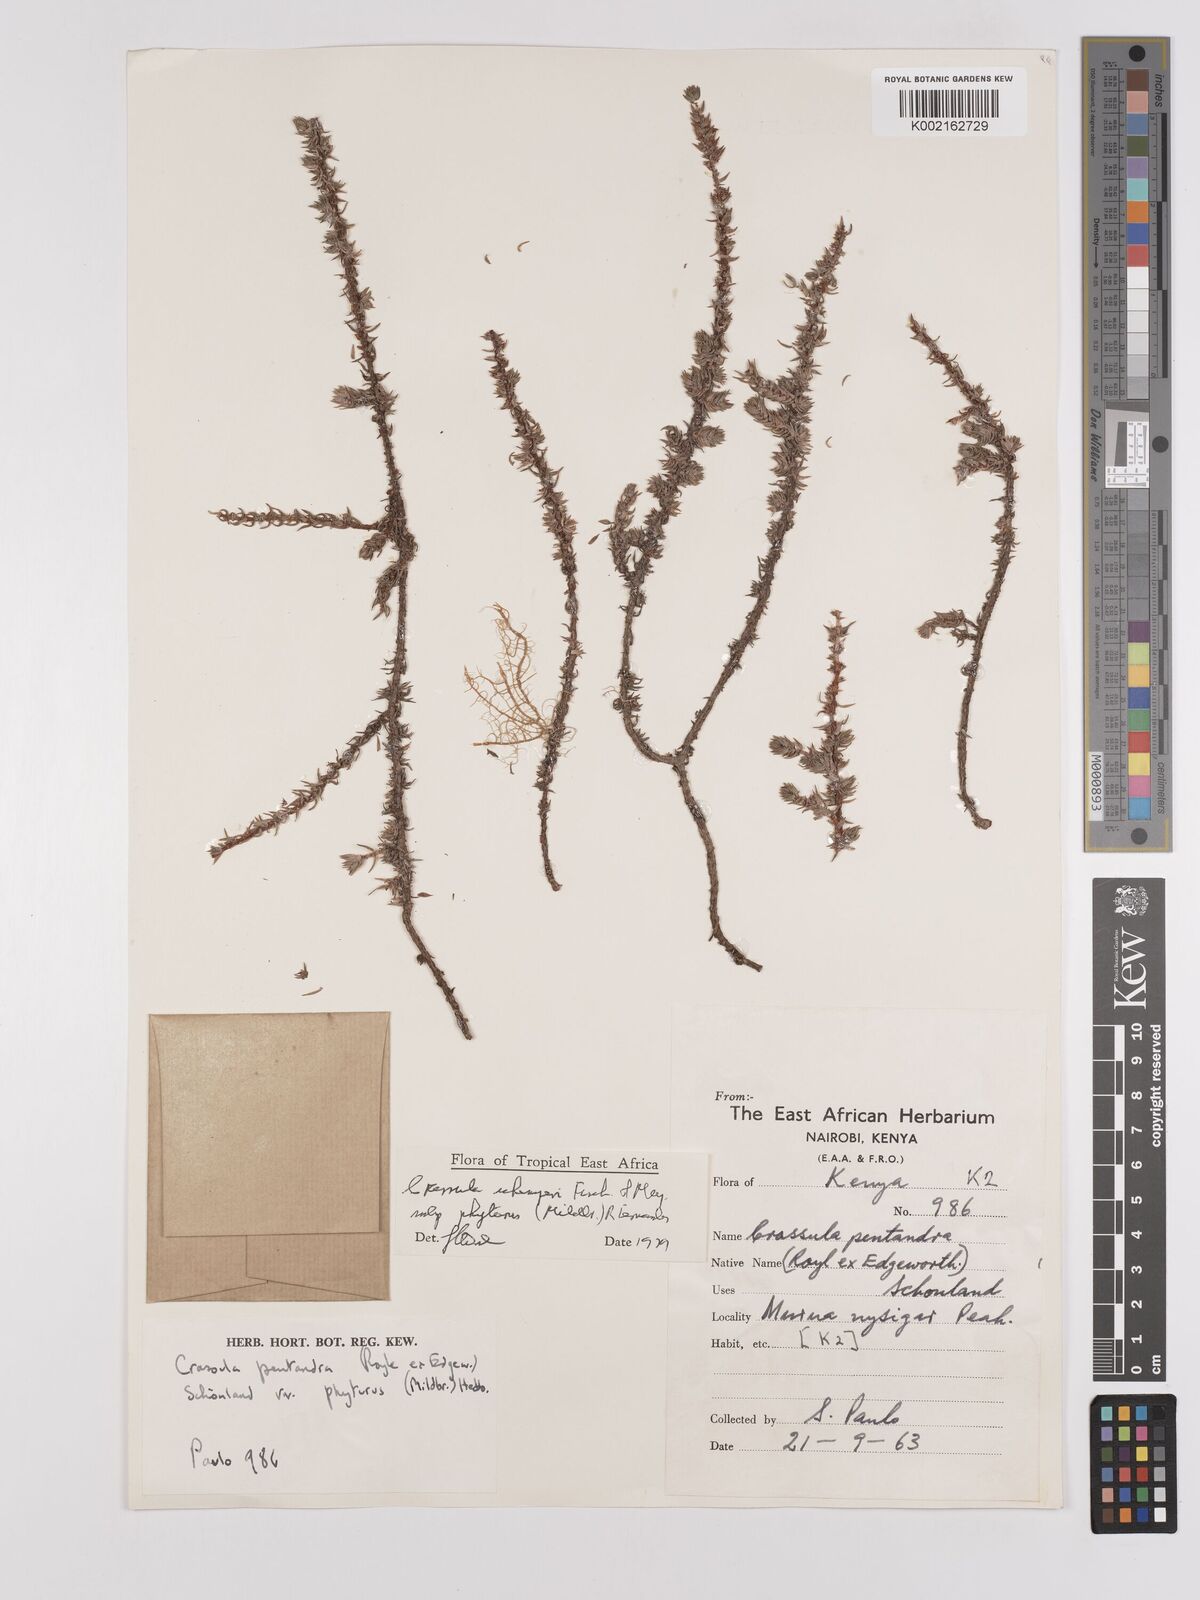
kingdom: Plantae
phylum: Tracheophyta
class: Magnoliopsida
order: Saxifragales
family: Crassulaceae
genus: Crassula
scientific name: Crassula schimperi
